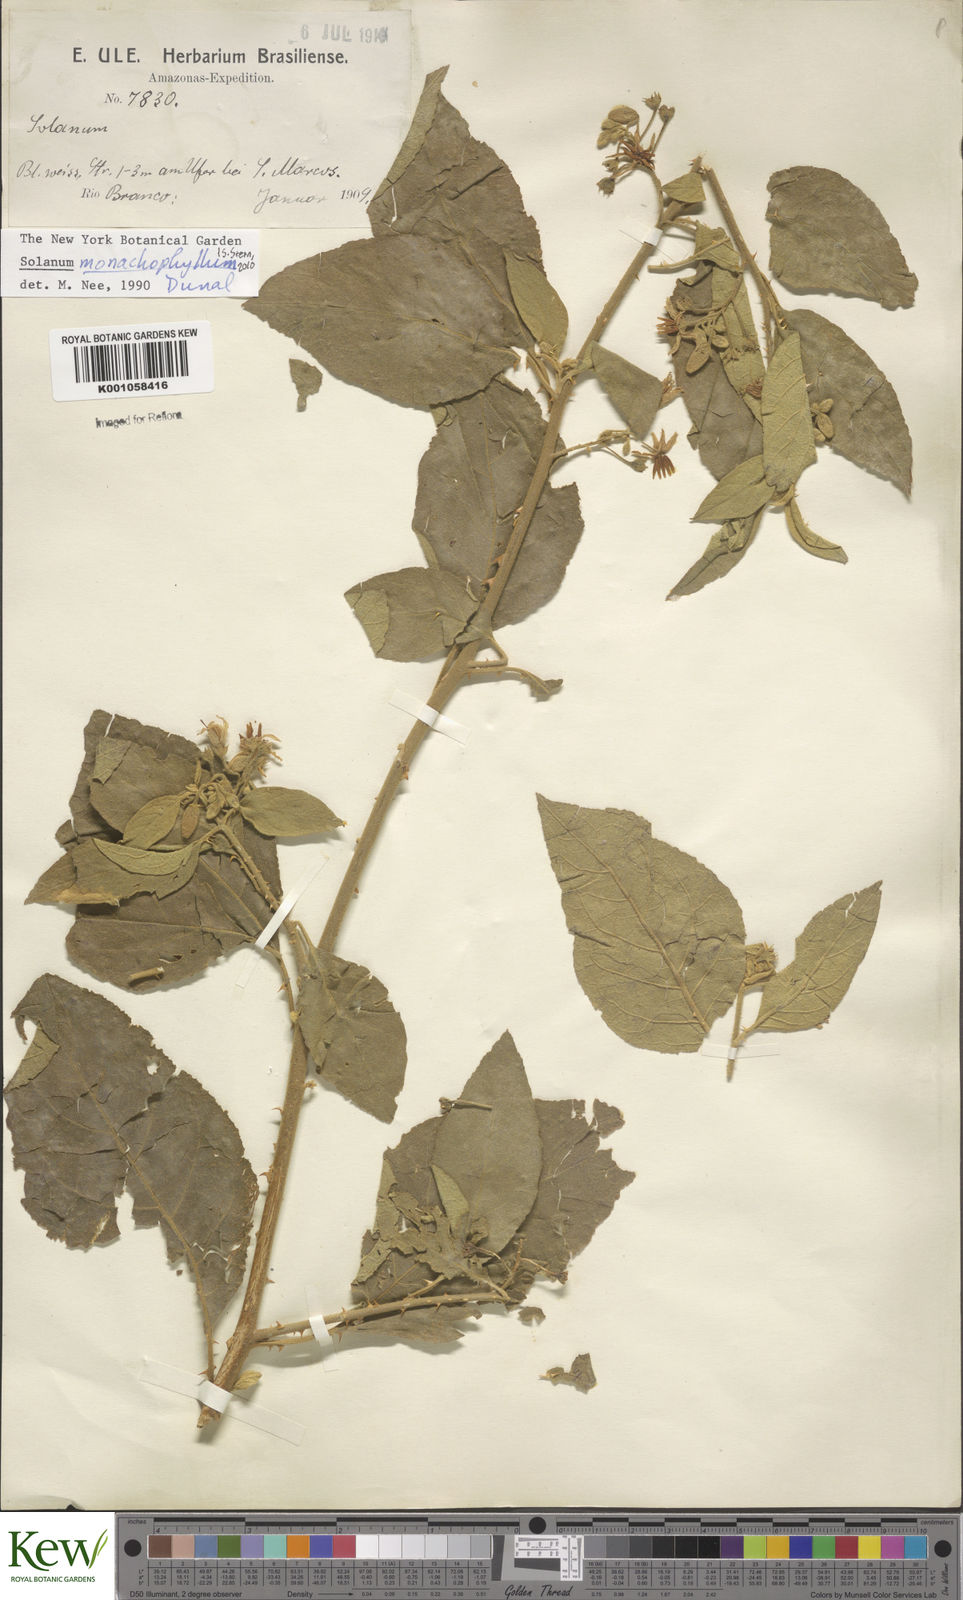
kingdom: Plantae
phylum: Tracheophyta
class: Magnoliopsida
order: Solanales
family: Solanaceae
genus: Solanum
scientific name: Solanum monachophyllum
